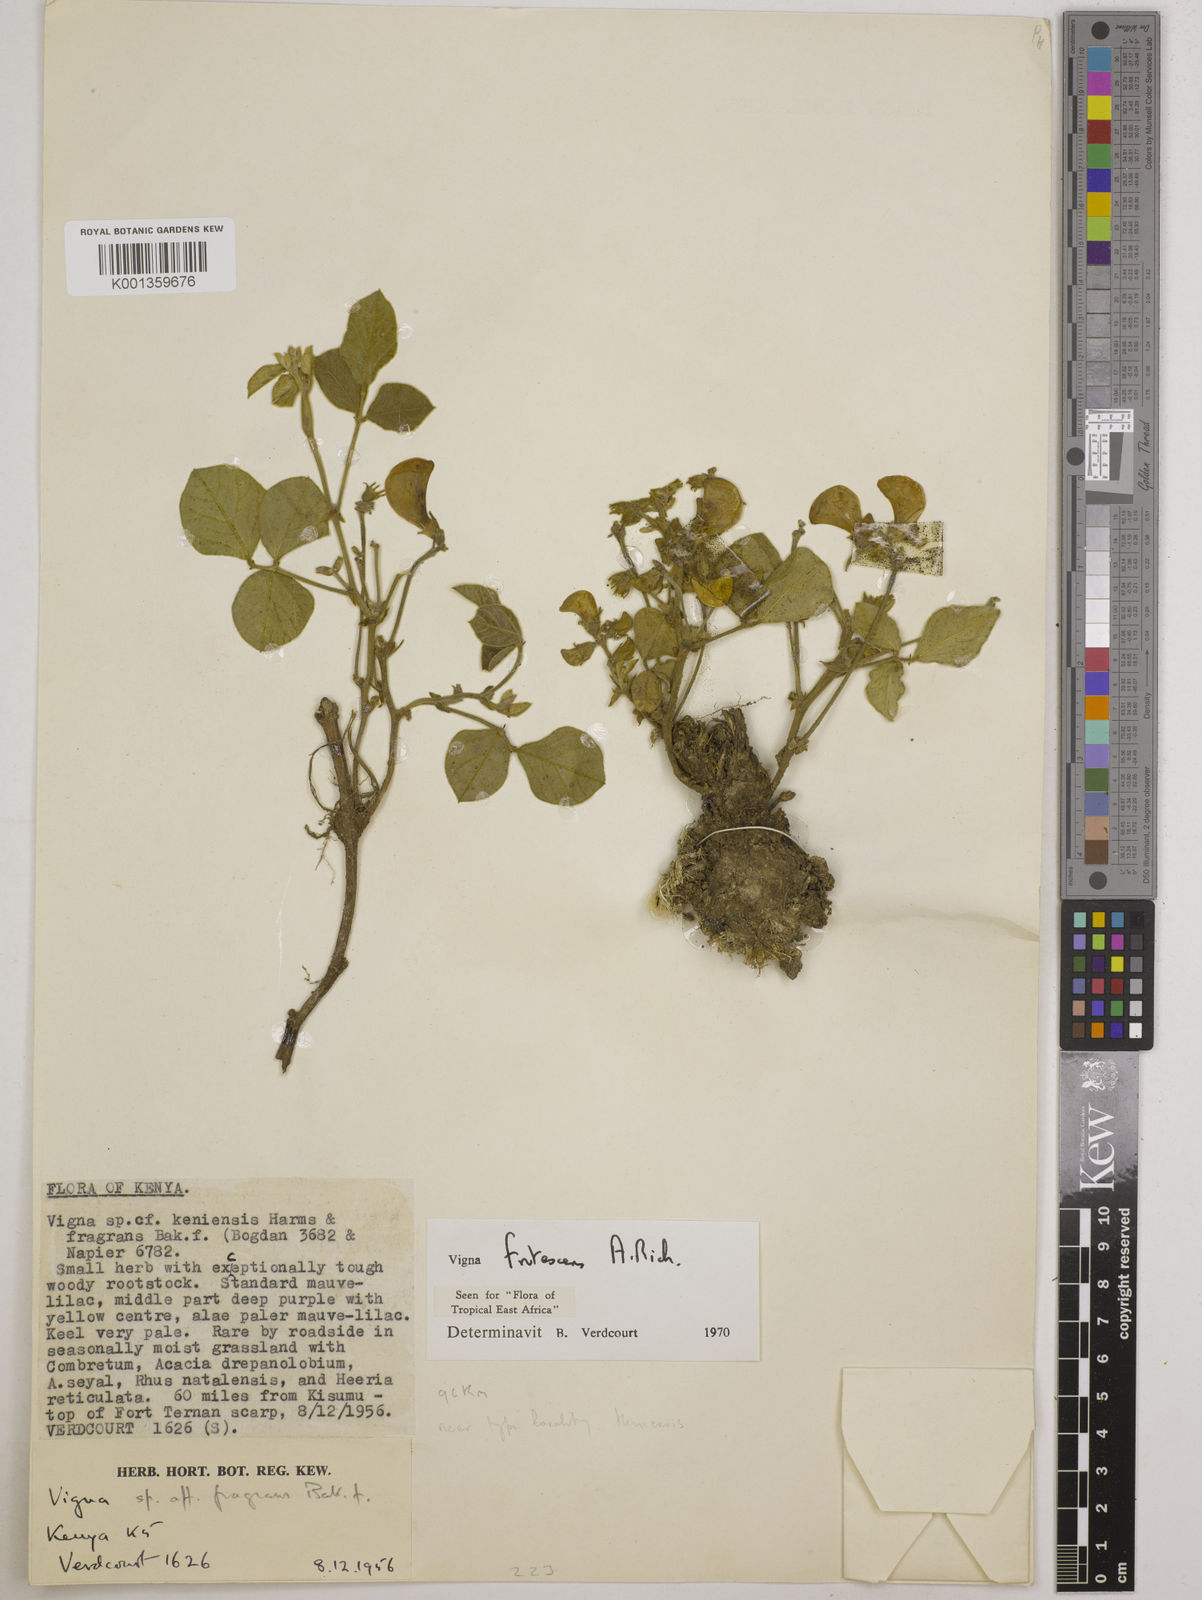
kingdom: Plantae
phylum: Tracheophyta
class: Magnoliopsida
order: Fabales
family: Fabaceae
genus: Vigna
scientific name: Vigna frutescens
